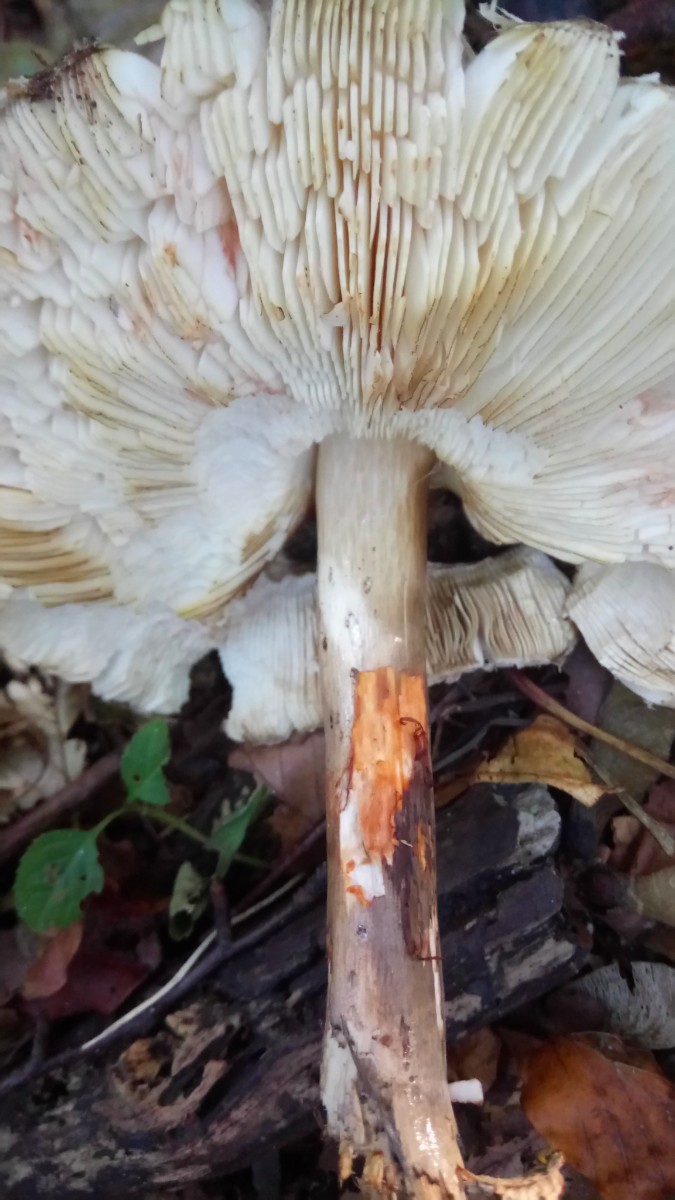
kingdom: Fungi
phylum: Basidiomycota
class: Agaricomycetes
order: Agaricales
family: Agaricaceae
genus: Chlorophyllum
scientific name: Chlorophyllum
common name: rabarberhat
